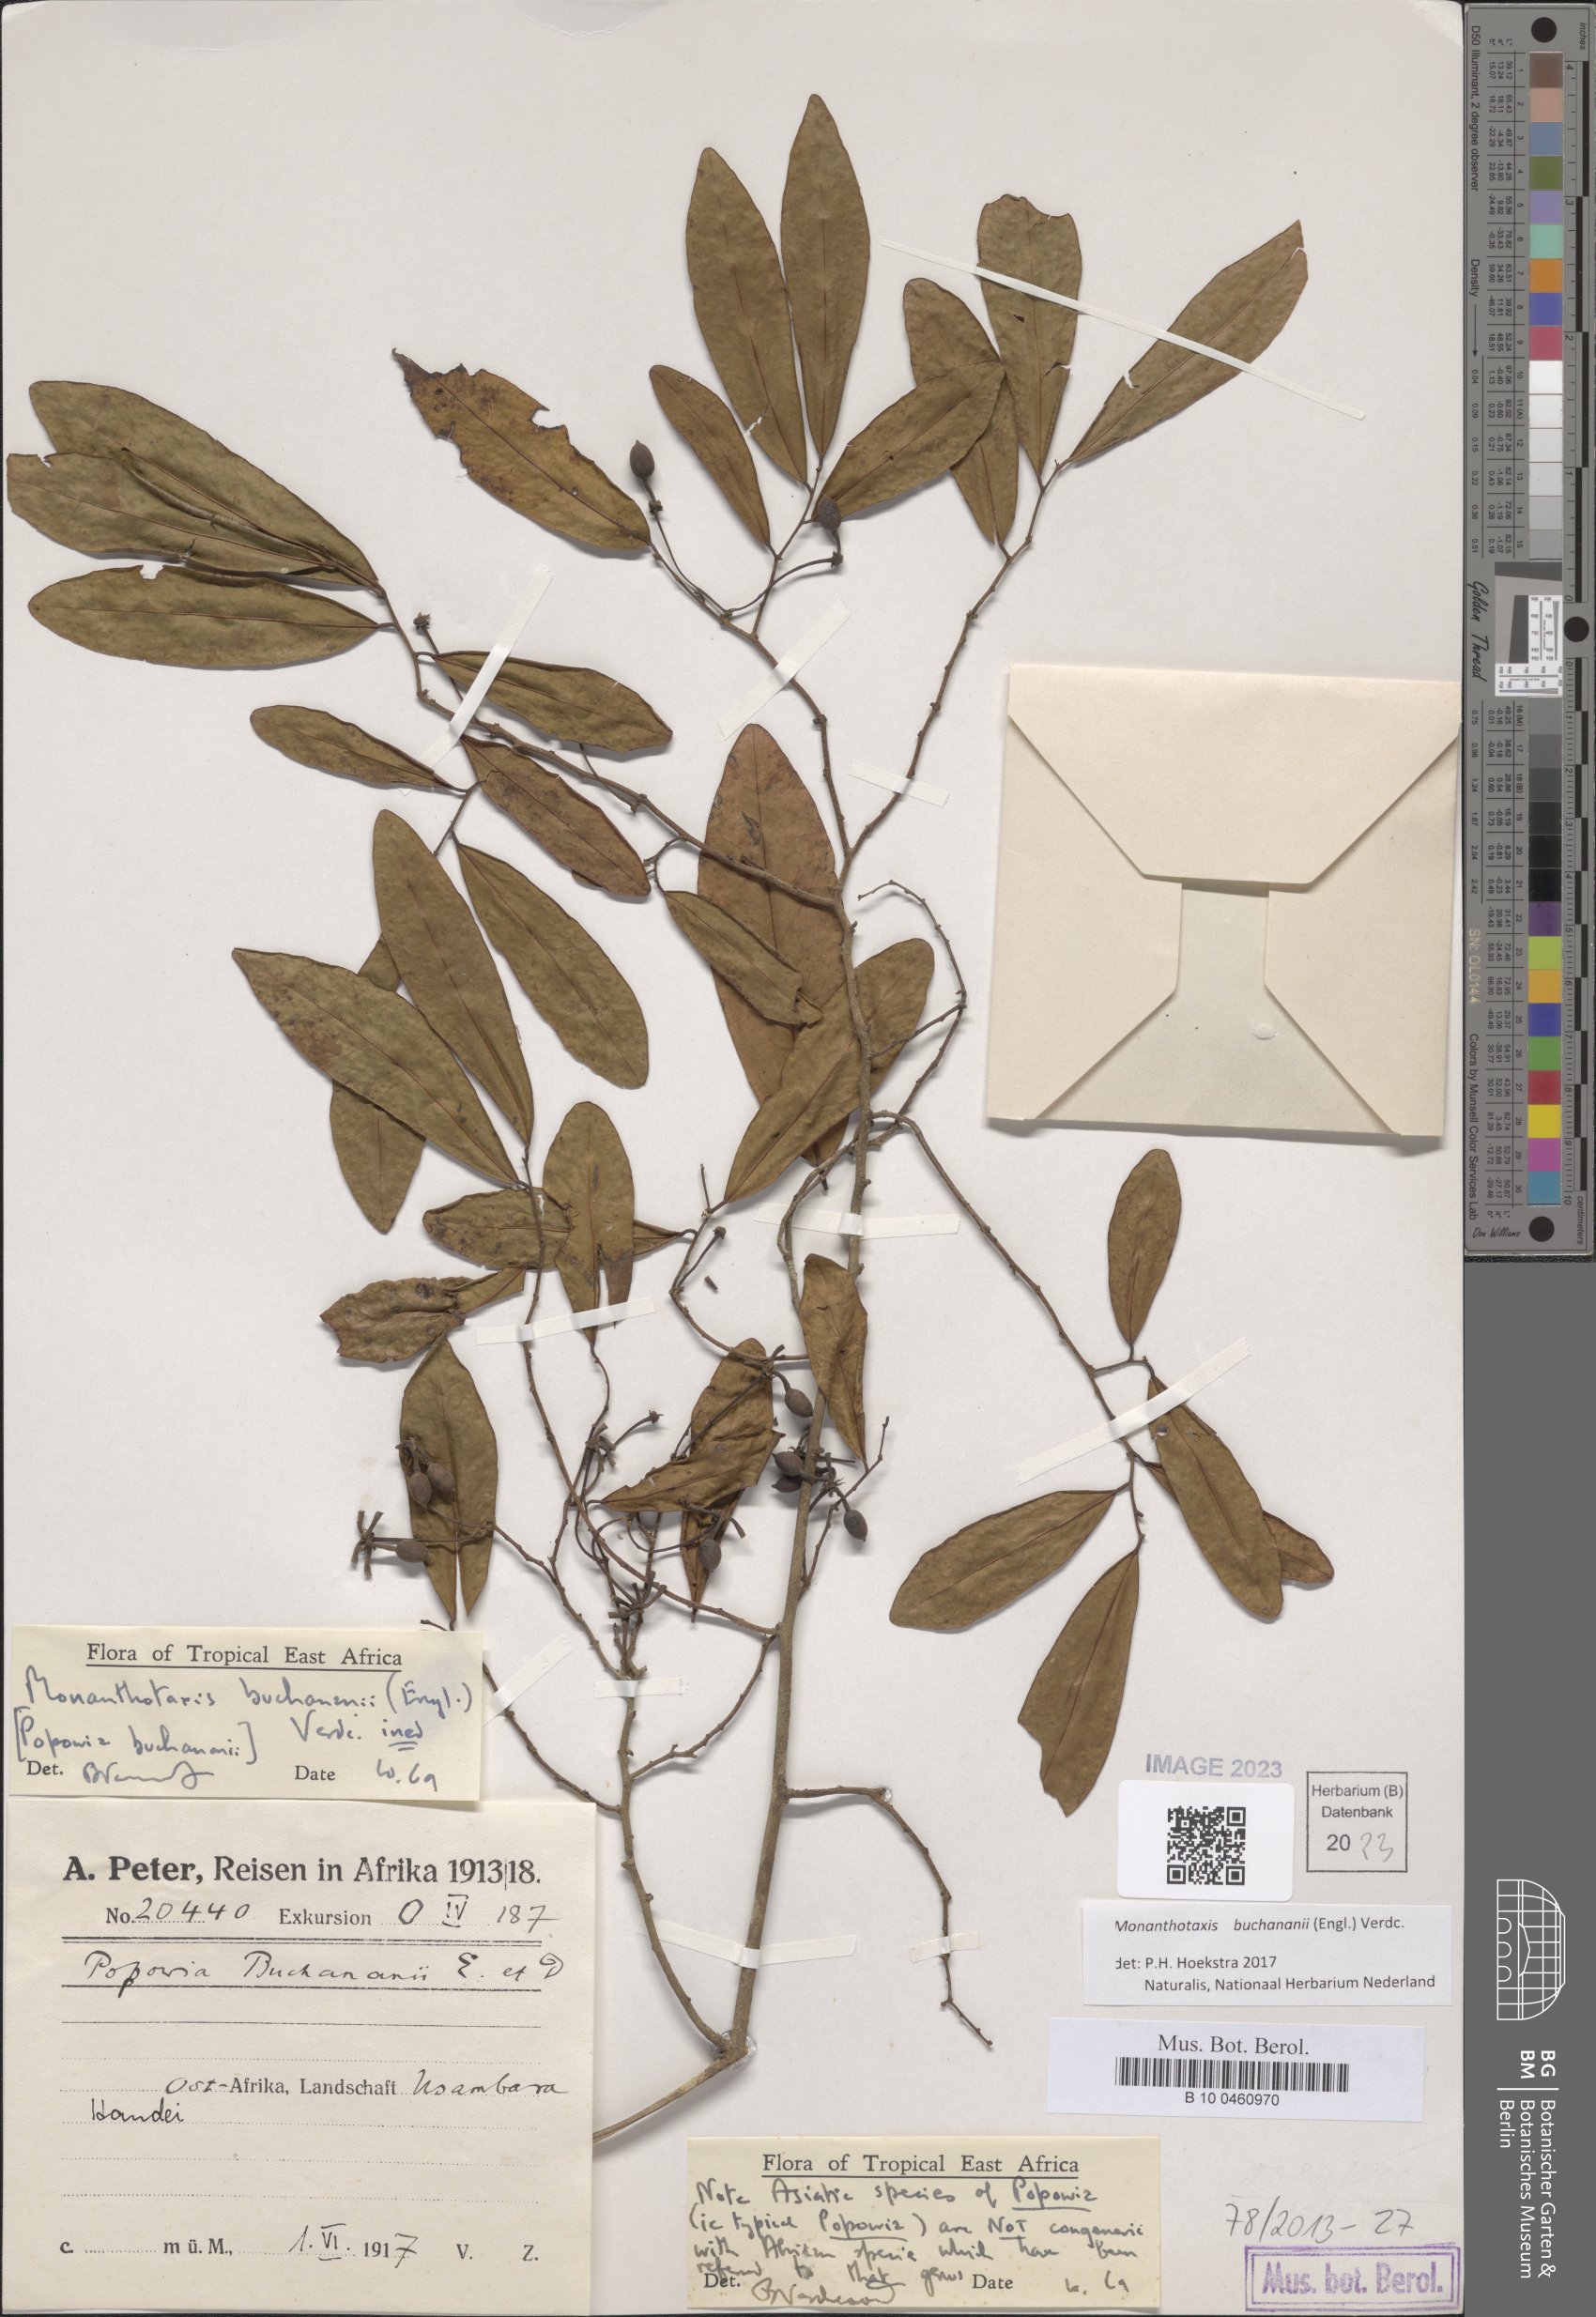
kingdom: Plantae
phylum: Tracheophyta
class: Magnoliopsida
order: Magnoliales
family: Annonaceae
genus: Monanthotaxis
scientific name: Monanthotaxis buchananii
